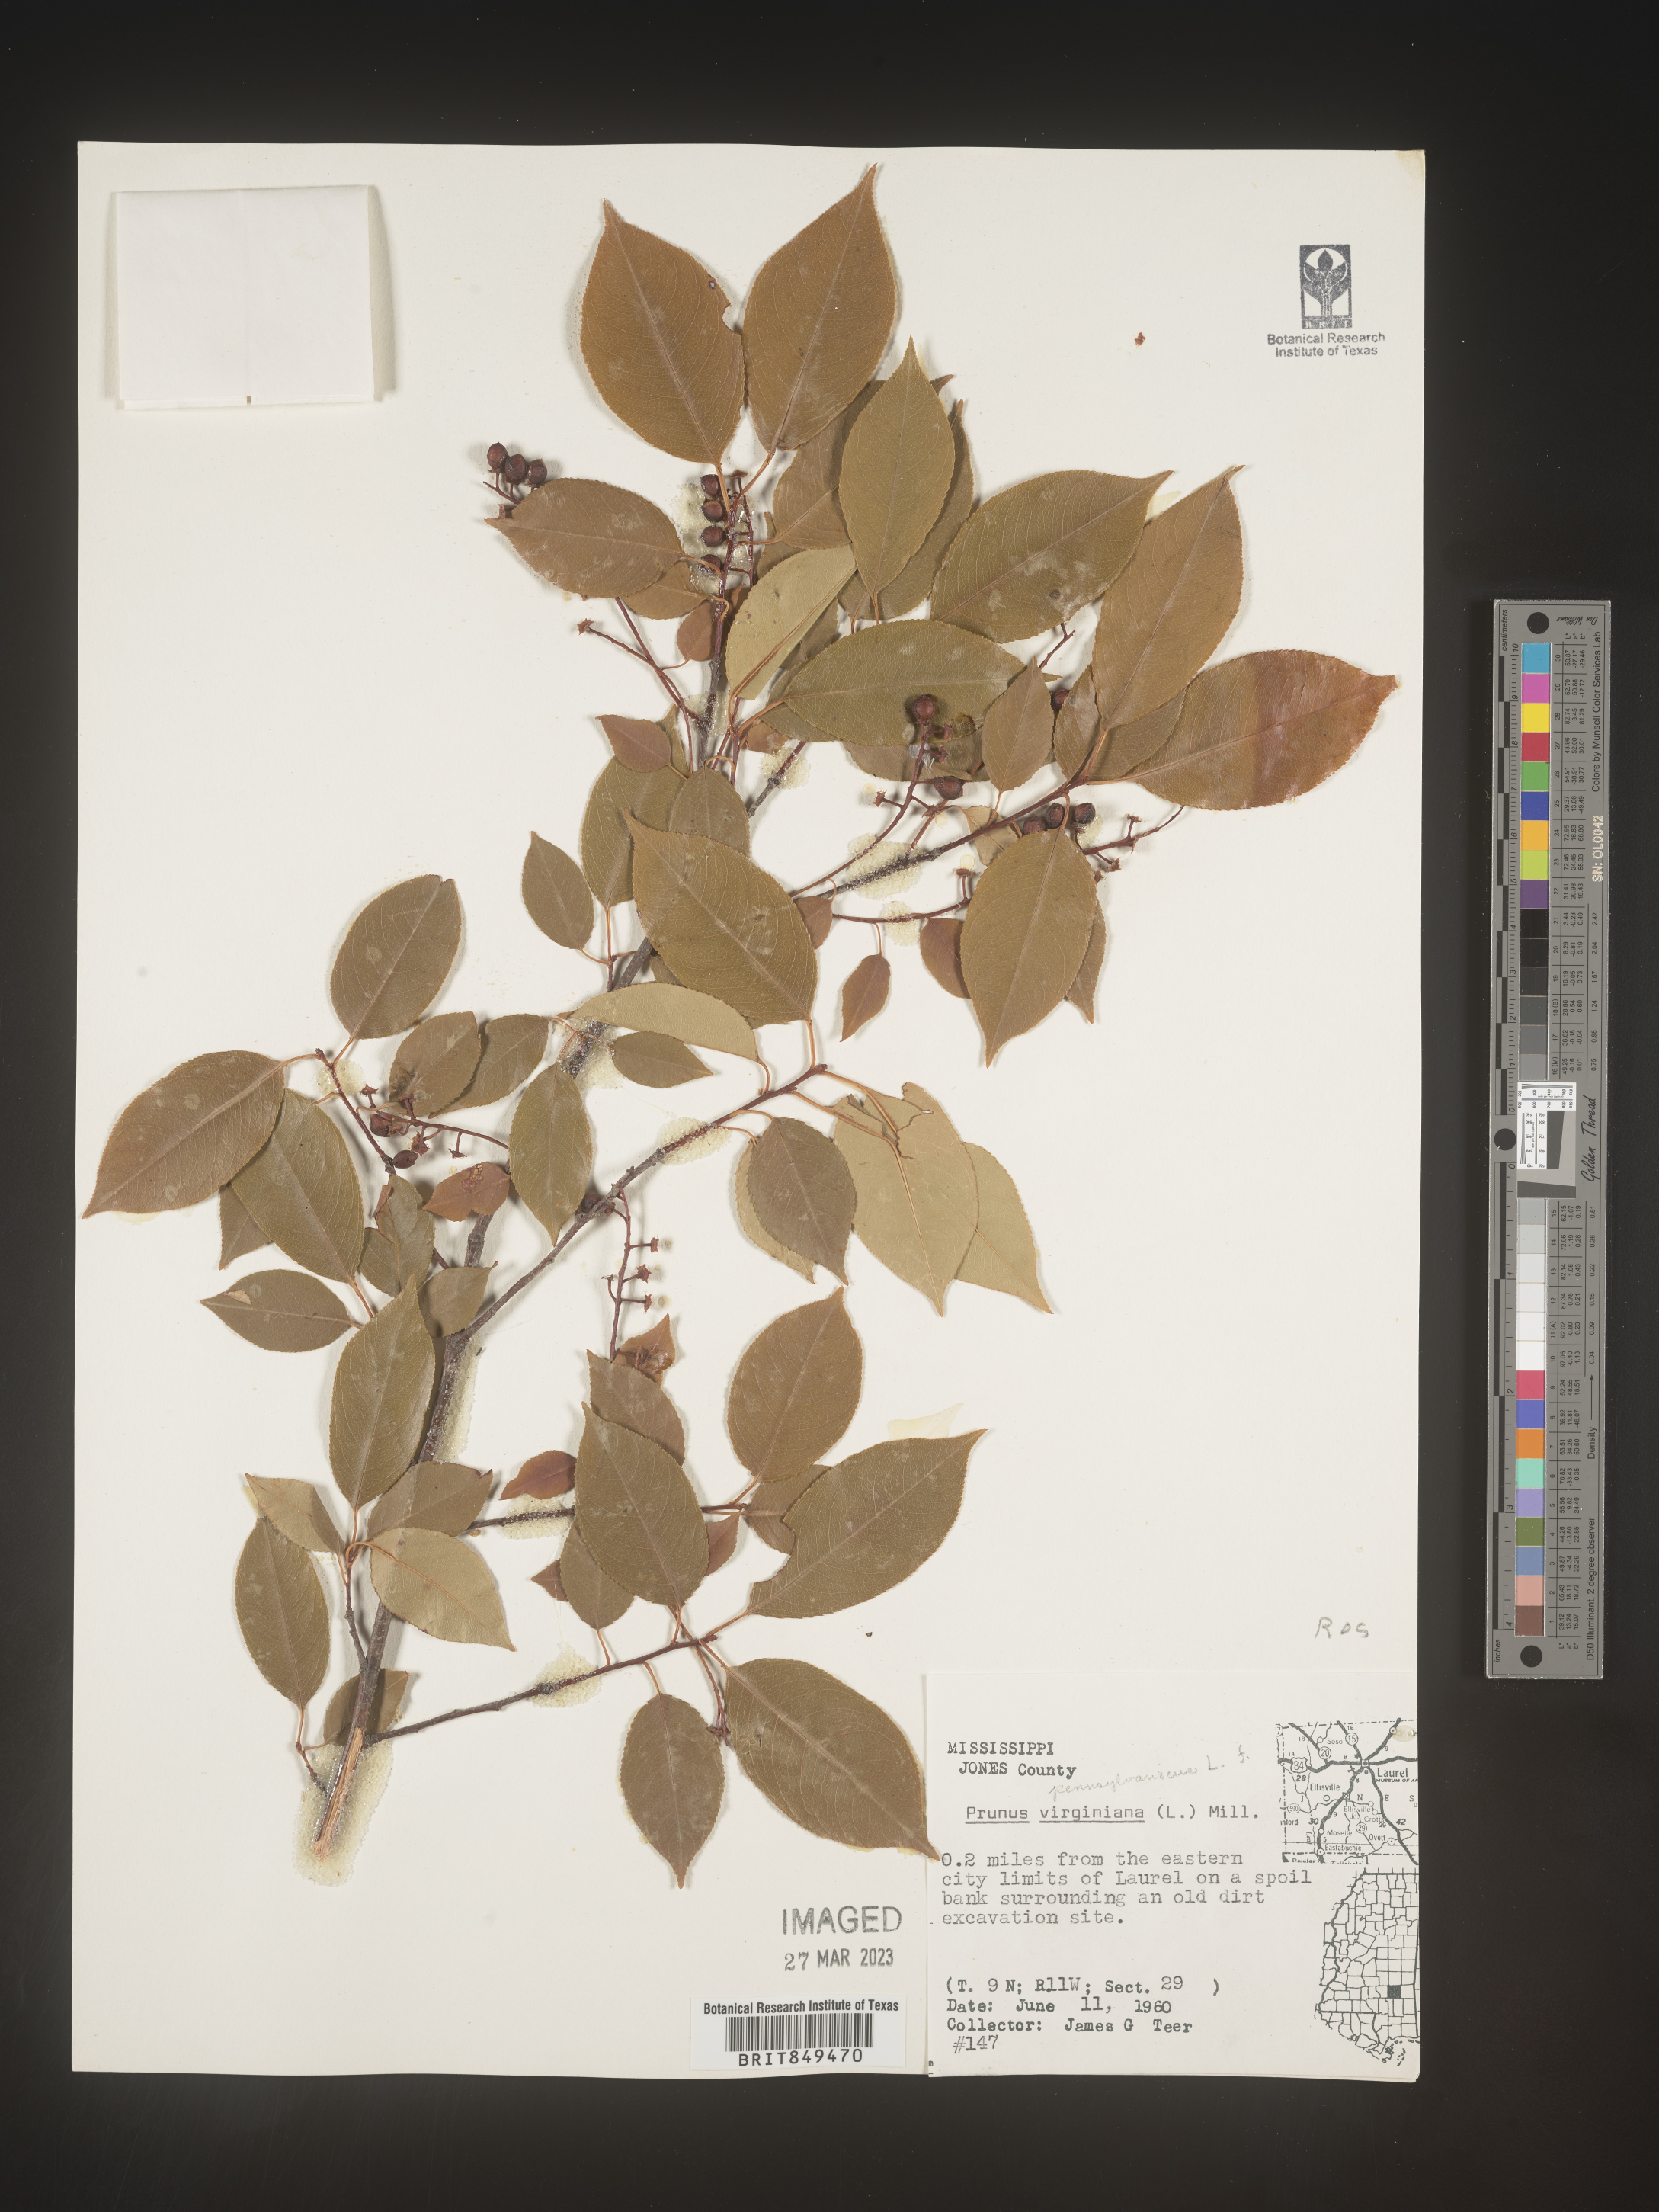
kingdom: Plantae
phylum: Tracheophyta
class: Magnoliopsida
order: Rosales
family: Rosaceae
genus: Prunus
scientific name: Prunus pensylvanica
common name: Pin cherry
